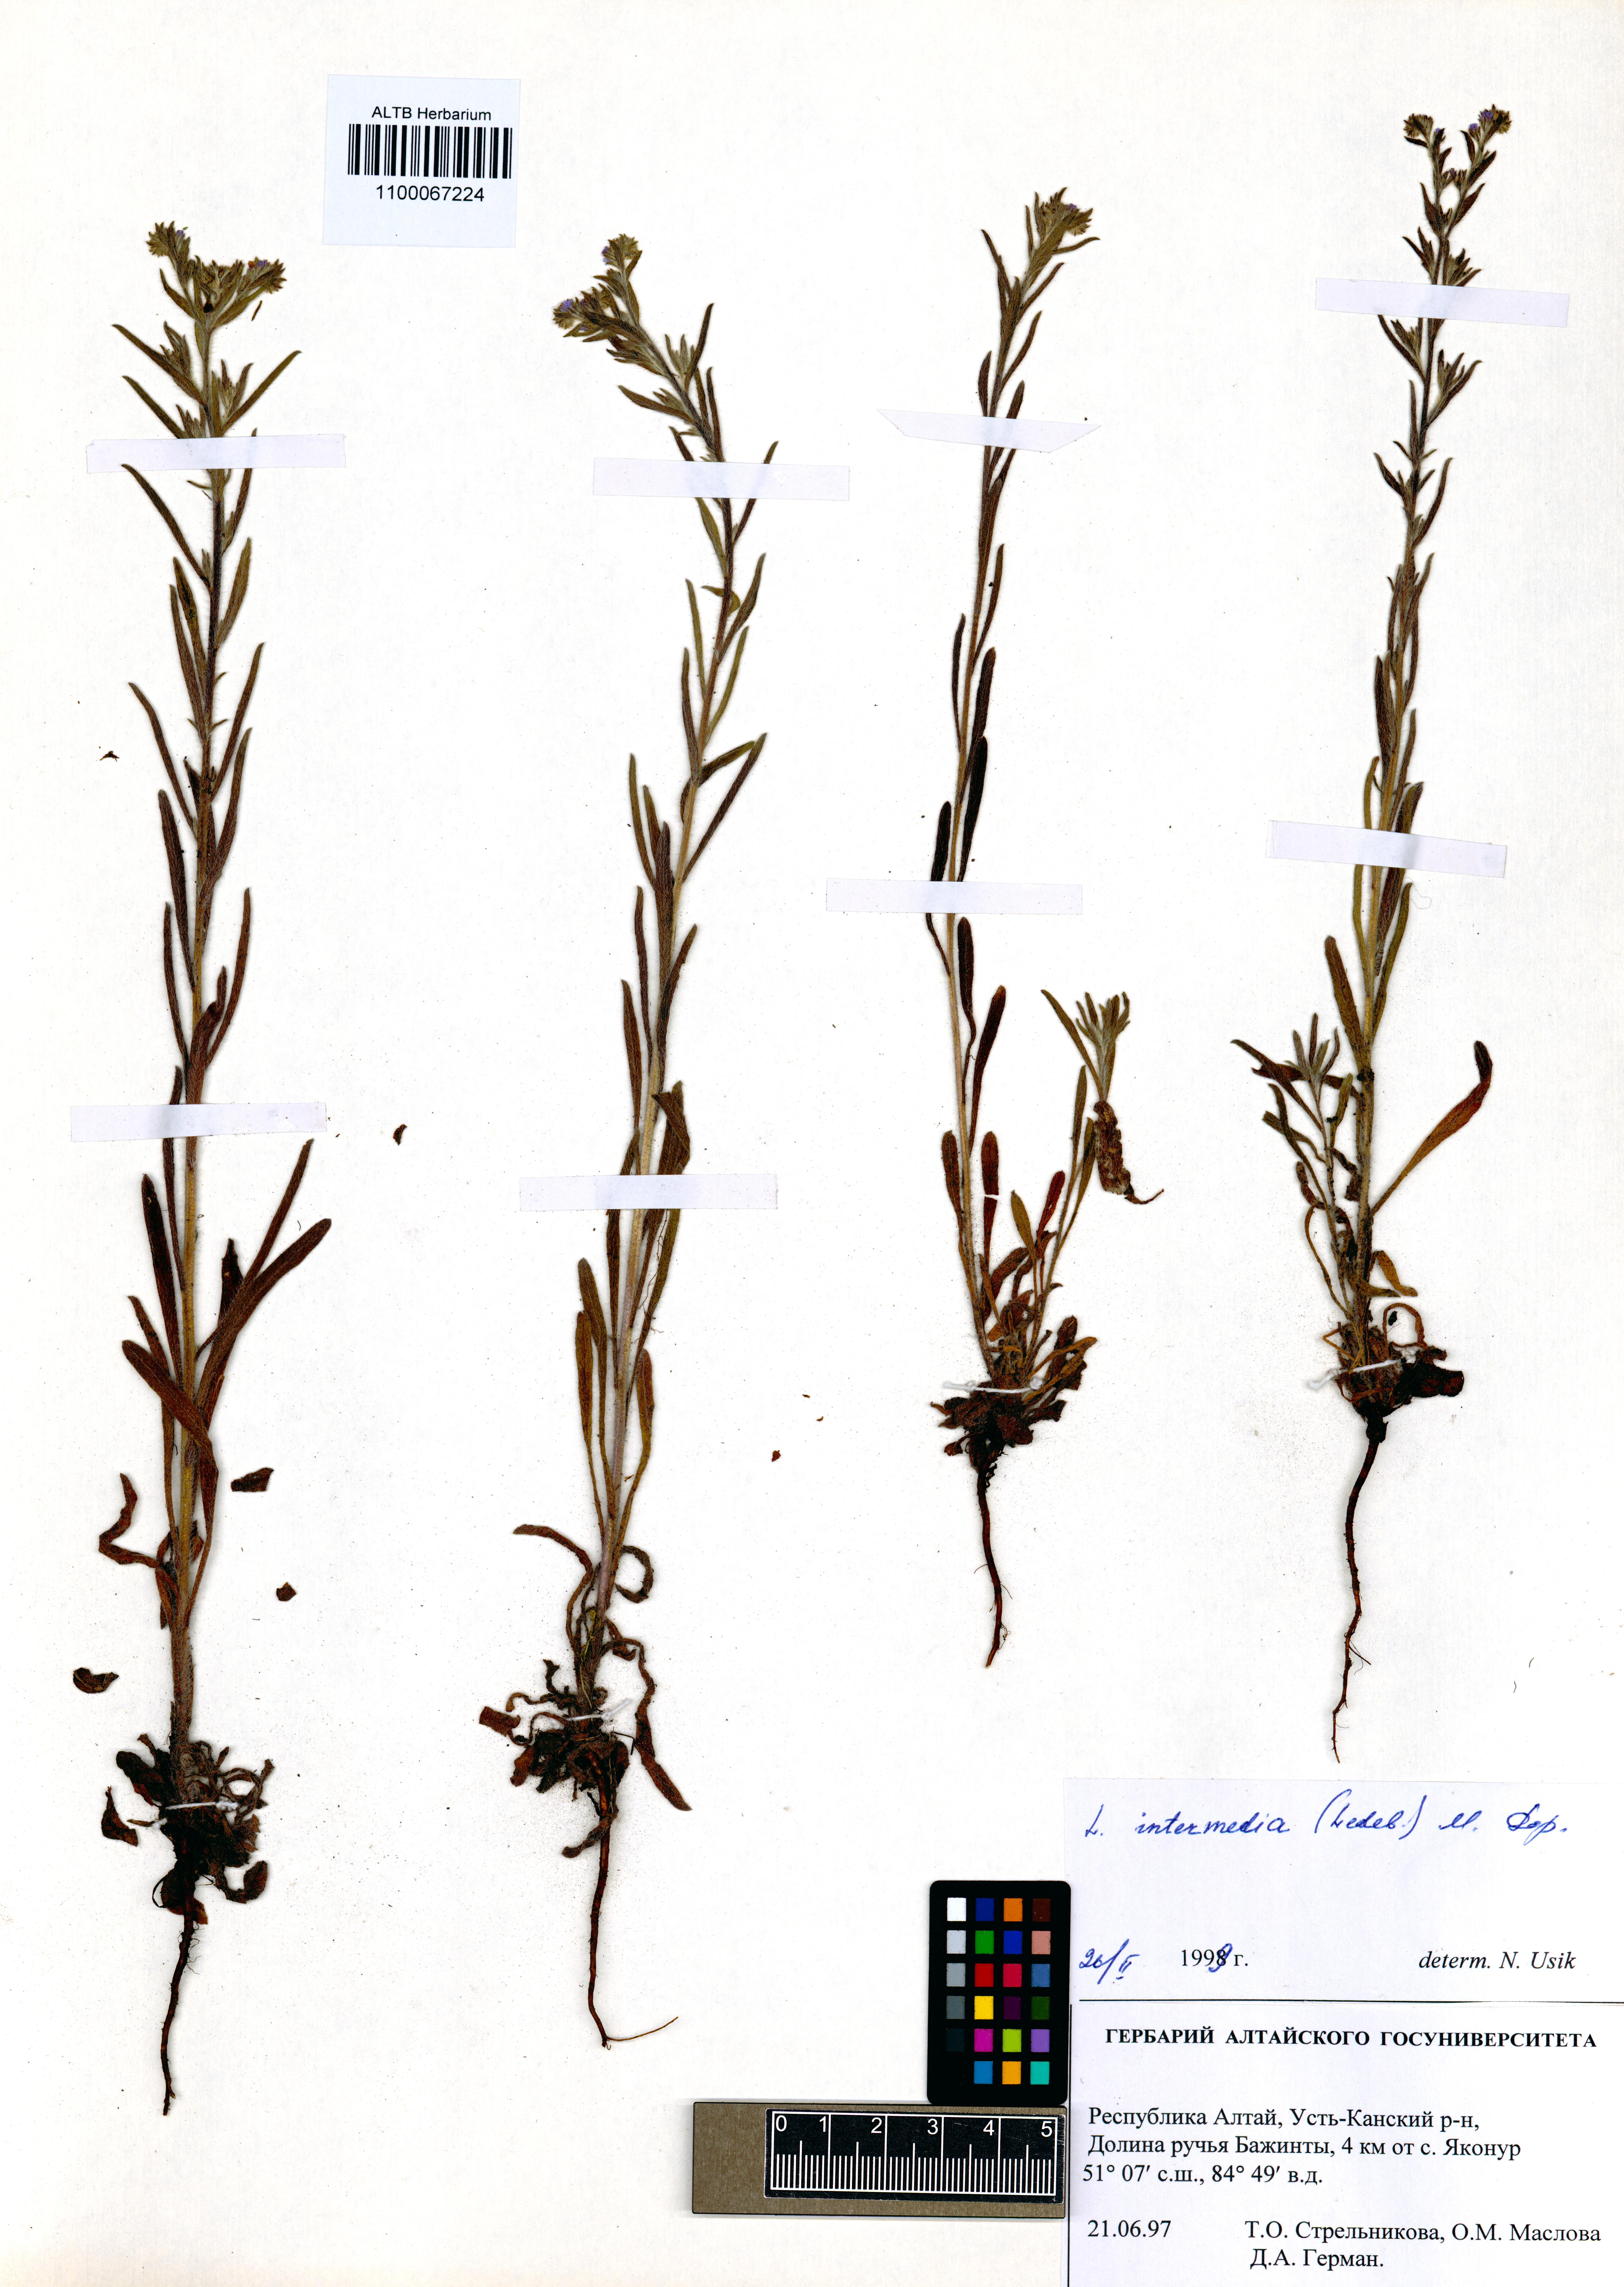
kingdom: Plantae
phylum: Tracheophyta
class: Magnoliopsida
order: Boraginales
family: Boraginaceae
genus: Lappula
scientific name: Lappula intermedia
